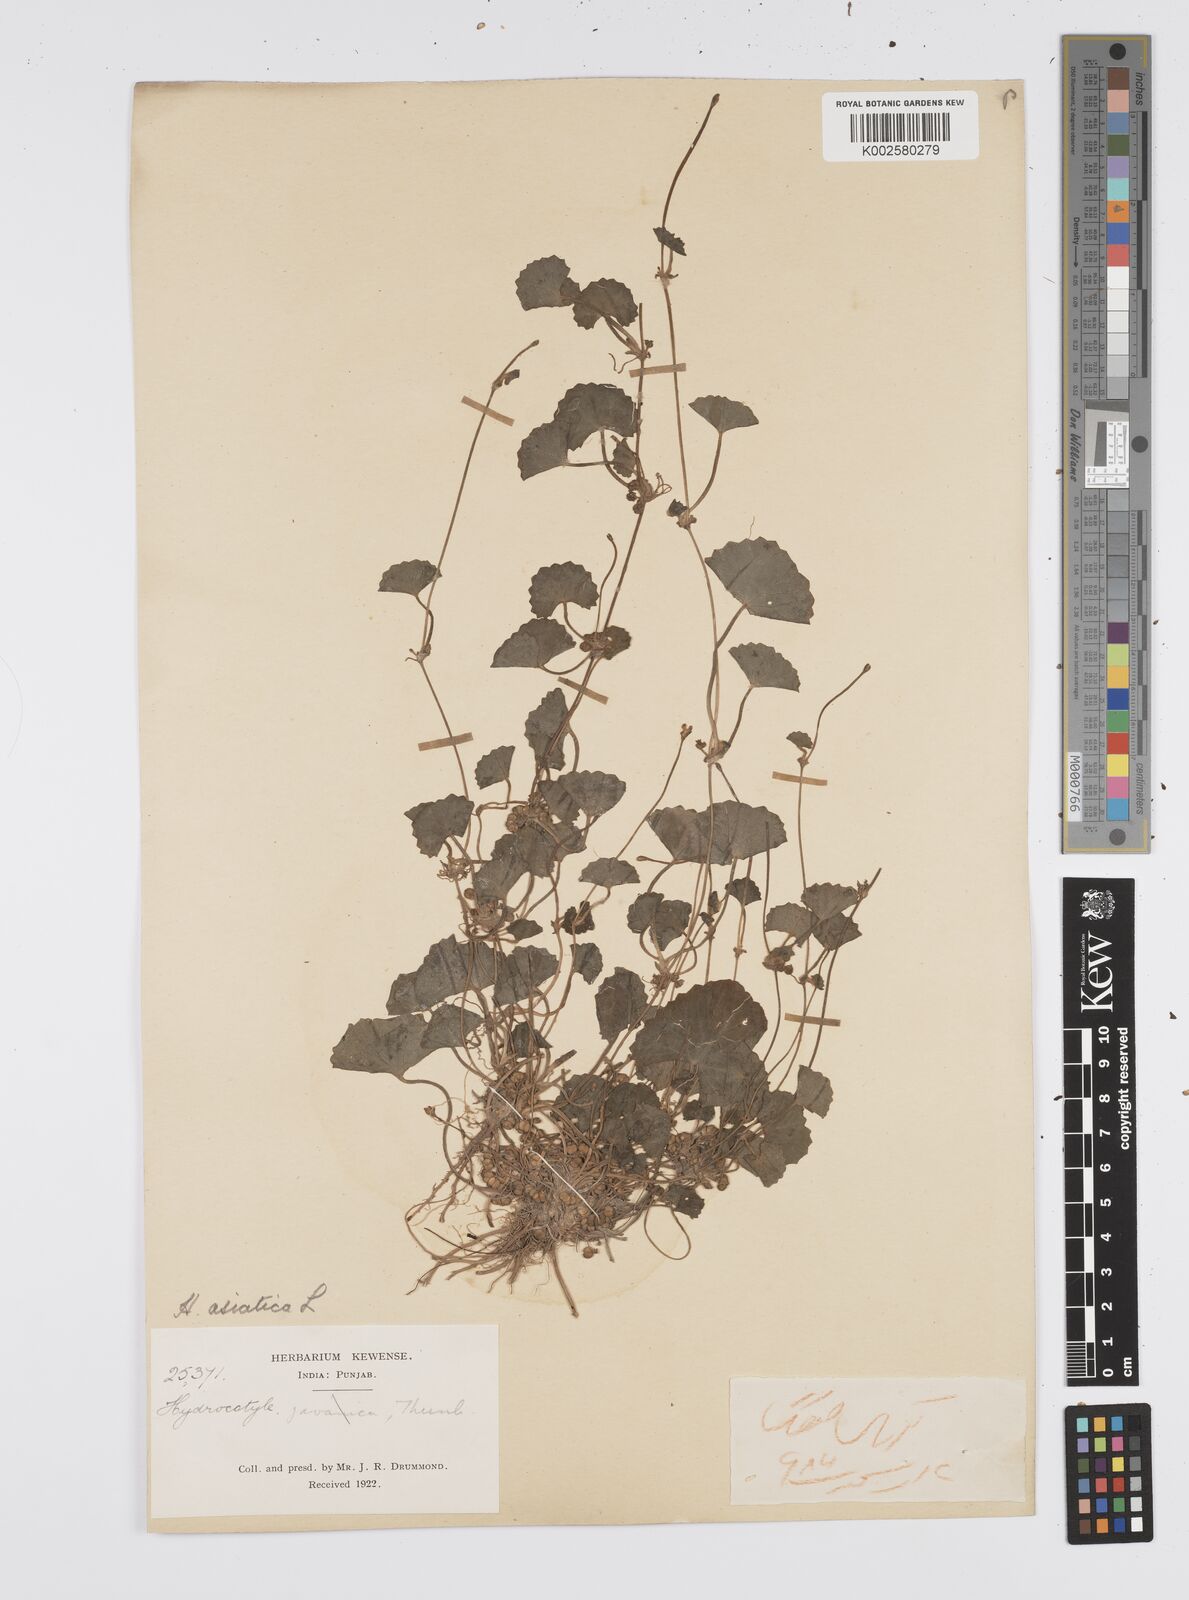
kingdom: Plantae
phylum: Tracheophyta
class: Magnoliopsida
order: Apiales
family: Apiaceae
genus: Centella
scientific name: Centella asiatica
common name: Spadeleaf
